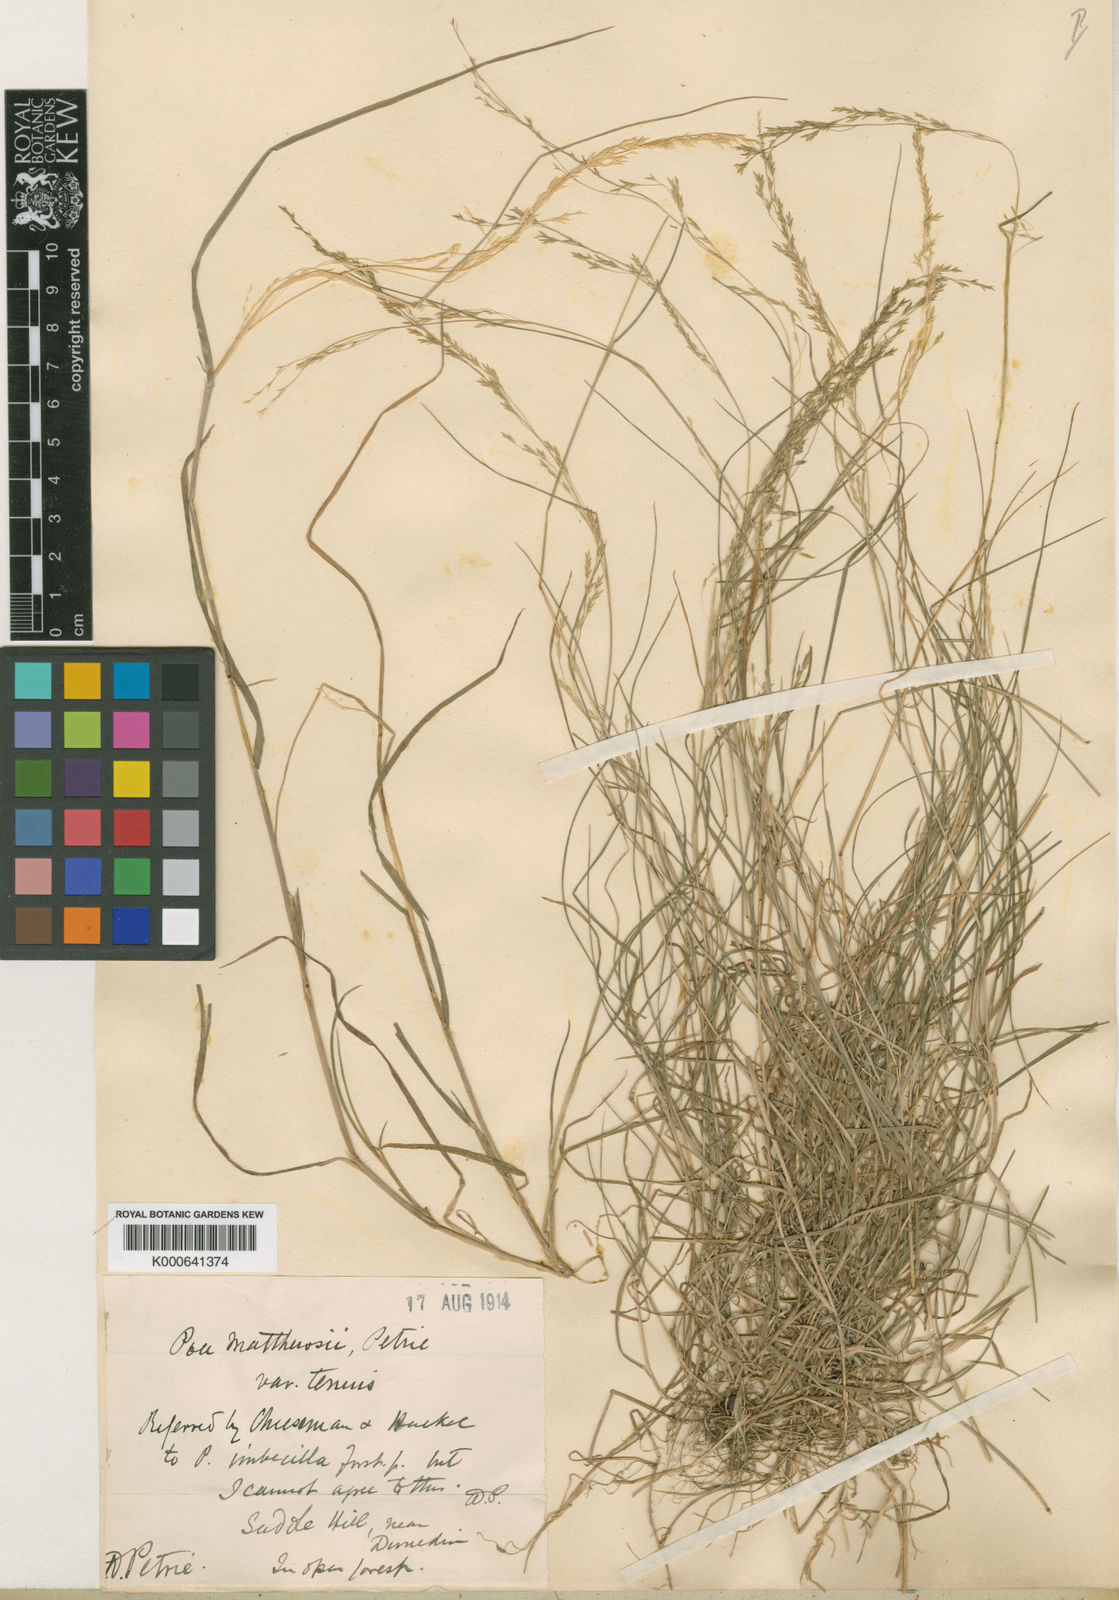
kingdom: Plantae
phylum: Tracheophyta
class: Liliopsida
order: Poales
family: Poaceae
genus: Poa
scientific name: Poa
